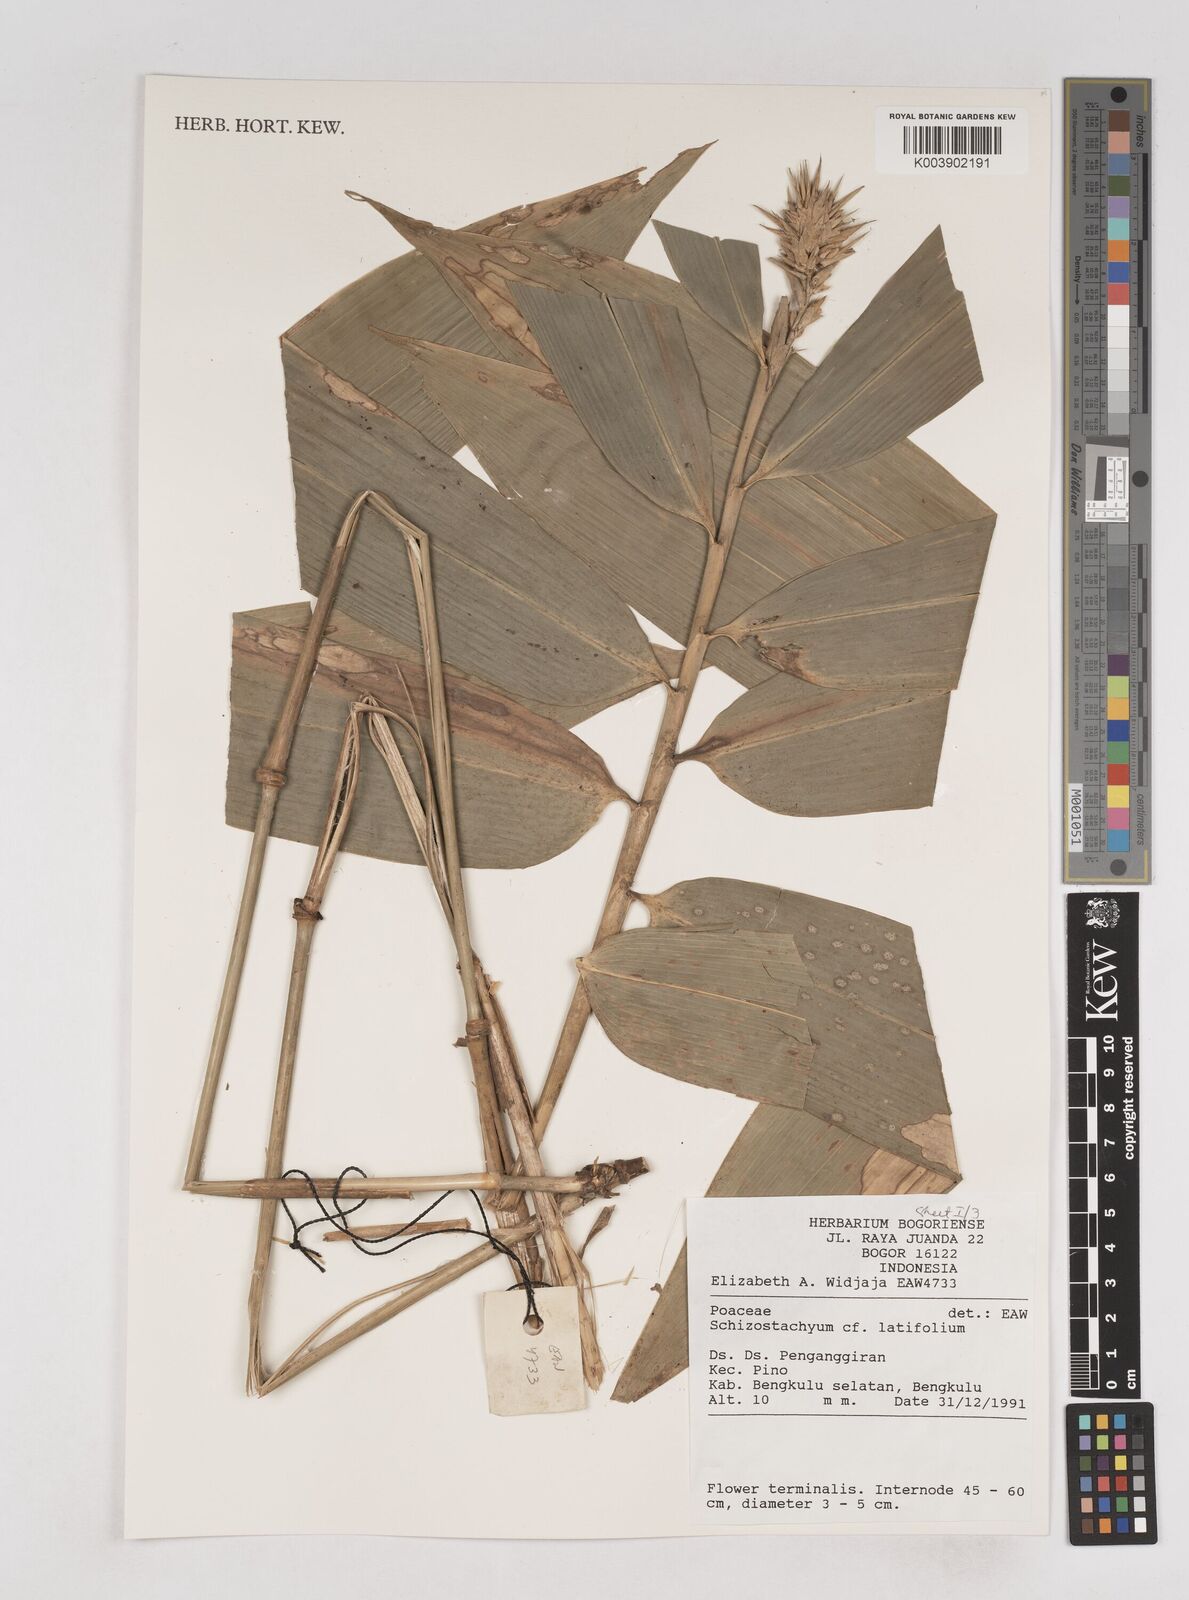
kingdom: Plantae
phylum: Tracheophyta
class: Liliopsida
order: Poales
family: Poaceae
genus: Schizostachyum
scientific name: Schizostachyum latifolium
